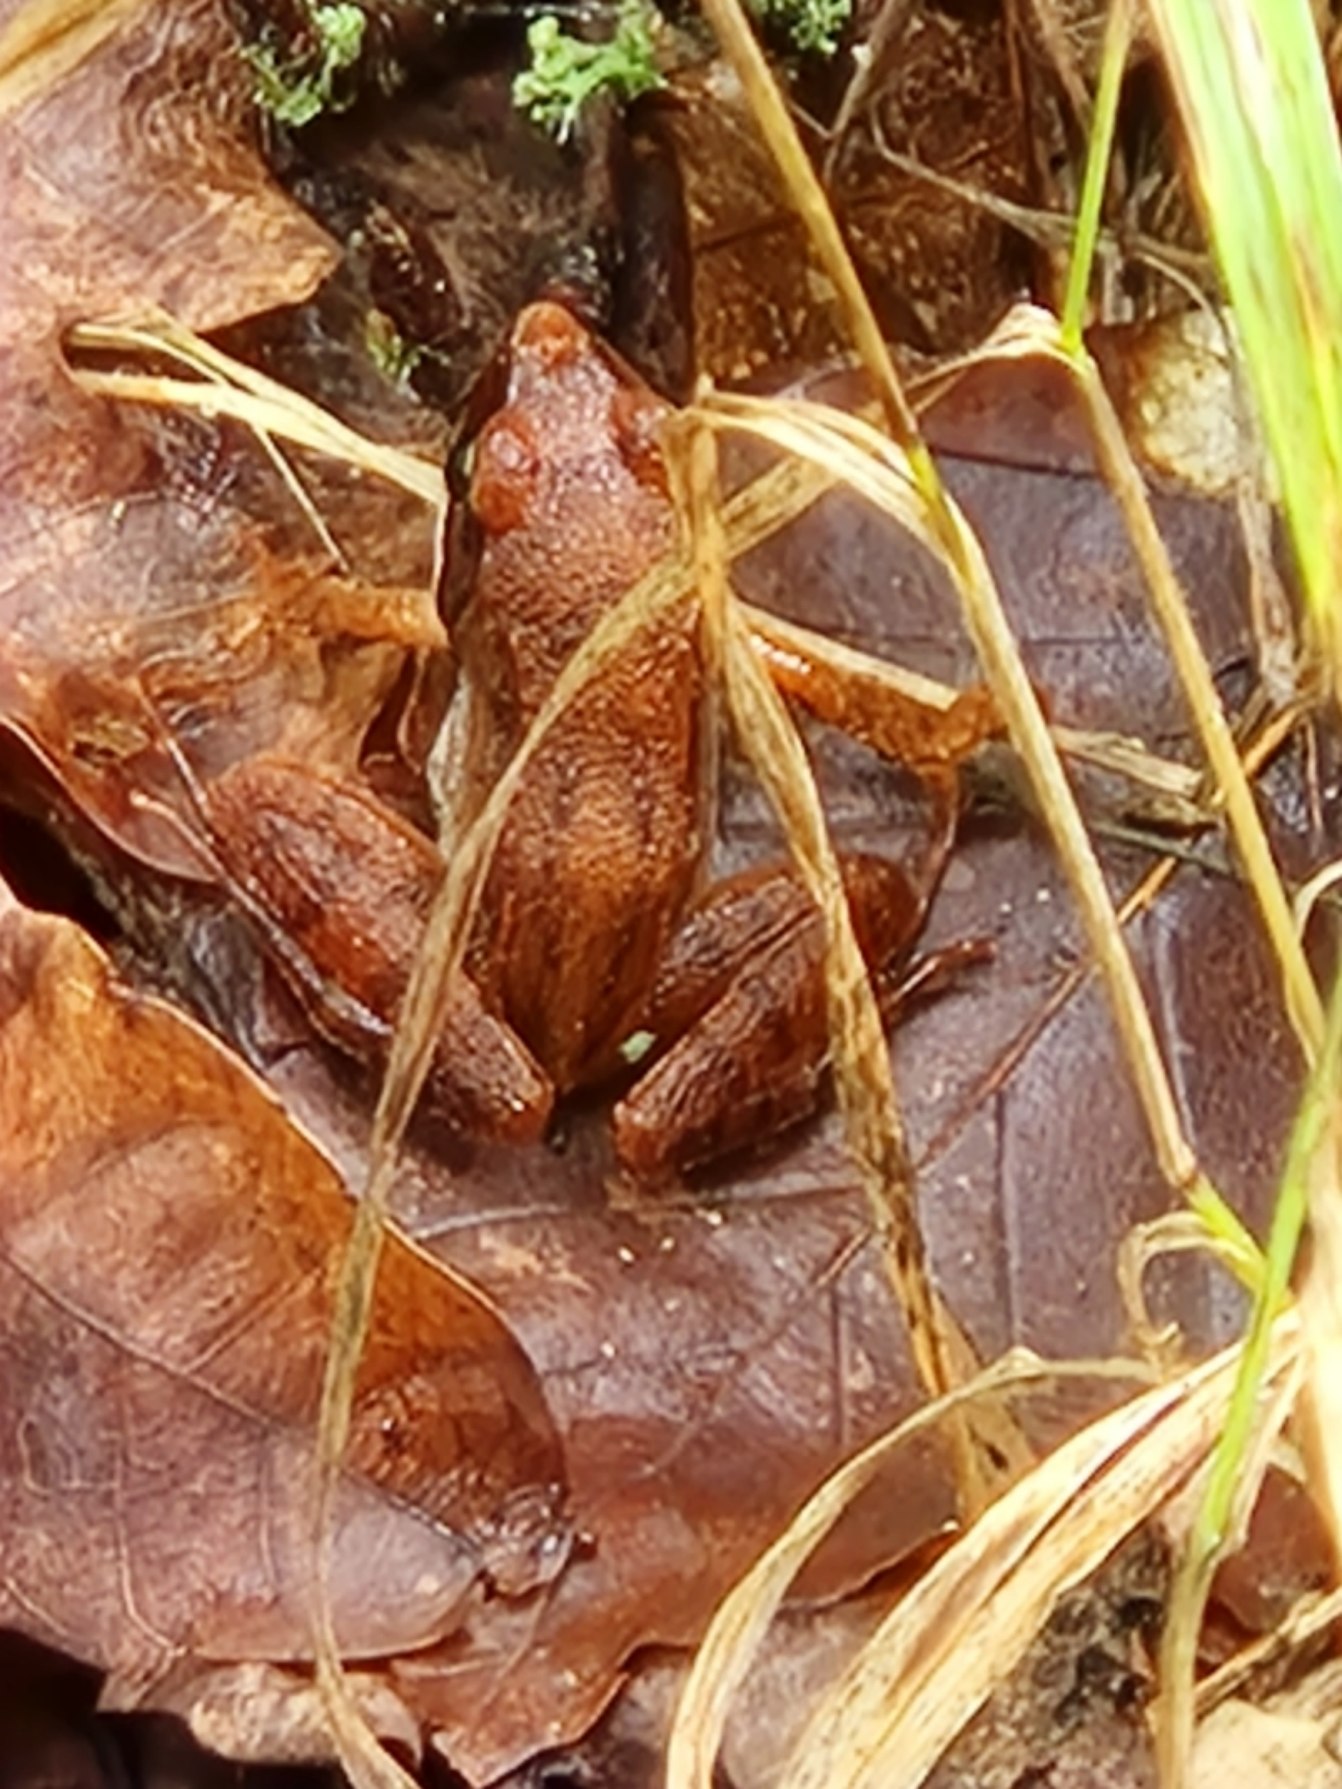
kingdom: Animalia
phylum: Chordata
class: Amphibia
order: Anura
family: Ranidae
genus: Rana
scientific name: Rana dalmatina
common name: Springfrø
